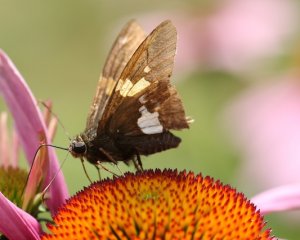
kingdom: Animalia
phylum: Arthropoda
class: Insecta
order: Lepidoptera
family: Hesperiidae
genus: Epargyreus
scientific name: Epargyreus clarus
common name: Silver-spotted Skipper
